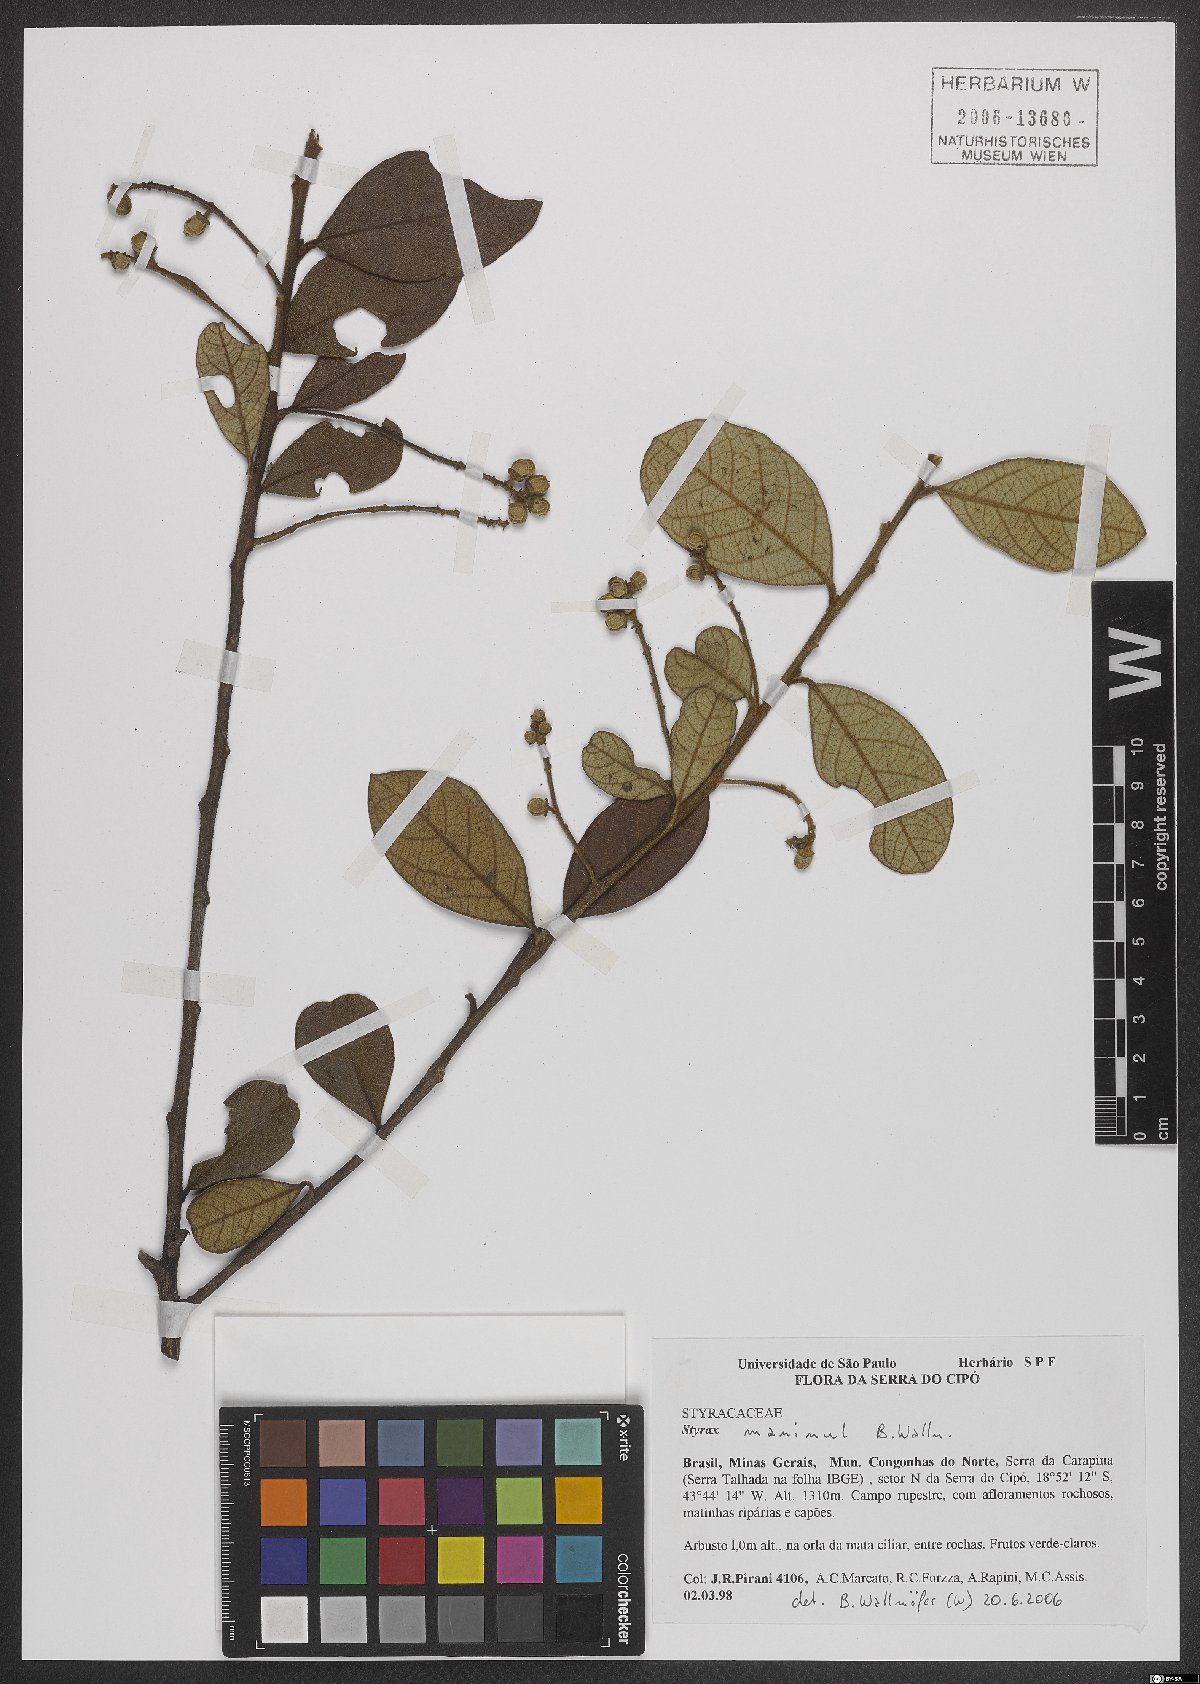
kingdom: Plantae
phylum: Tracheophyta
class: Magnoliopsida
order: Ericales
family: Styracaceae
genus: Styrax
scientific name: Styrax maninul
